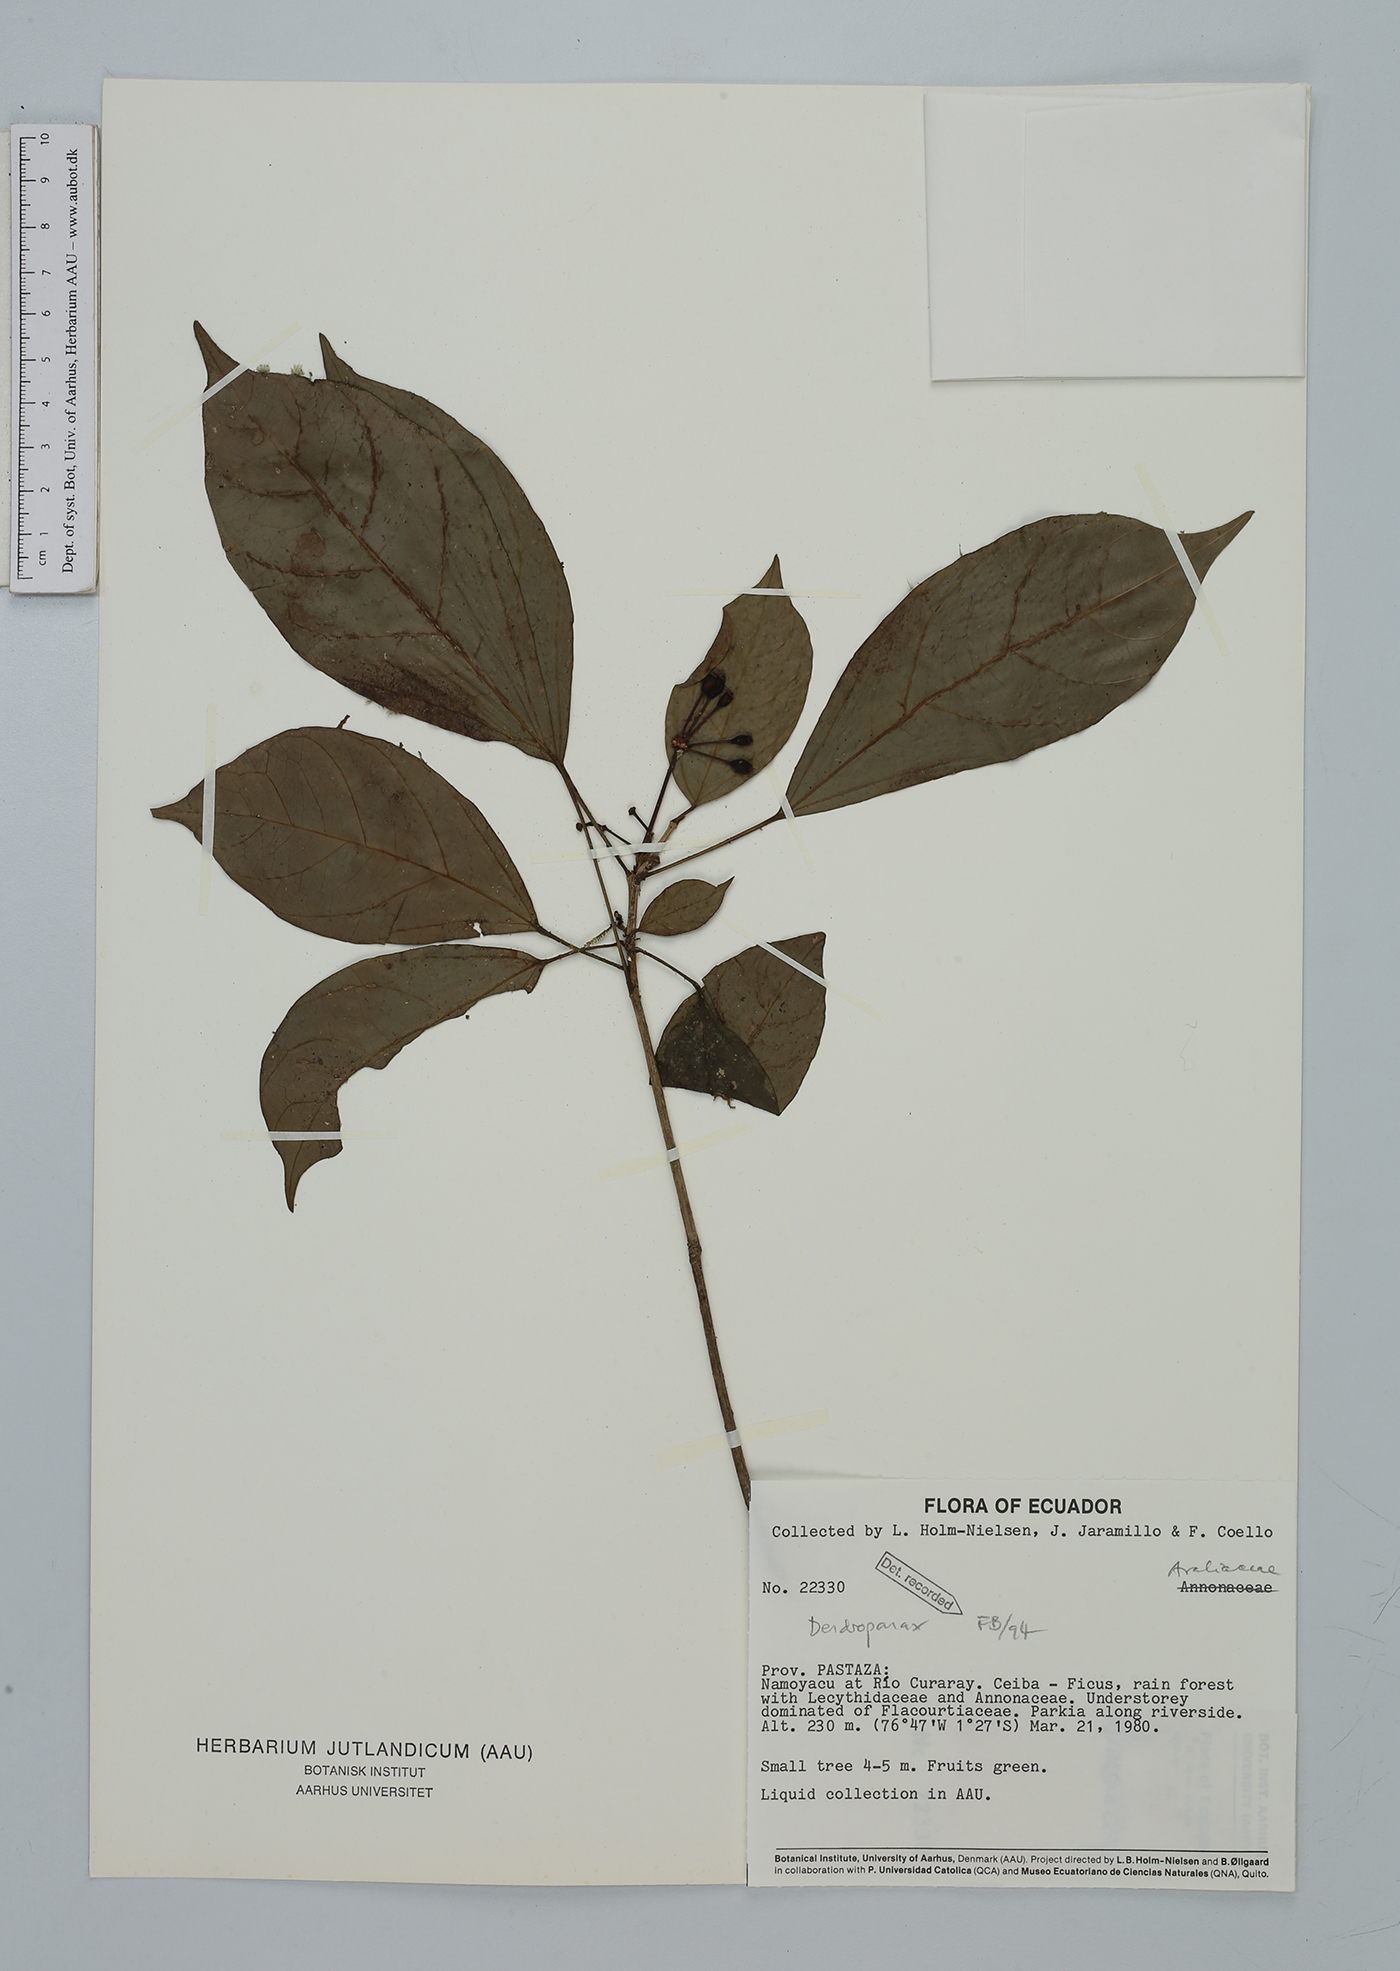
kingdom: Plantae
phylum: Tracheophyta
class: Magnoliopsida
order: Apiales
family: Araliaceae
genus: Dendropanax
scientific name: Dendropanax
